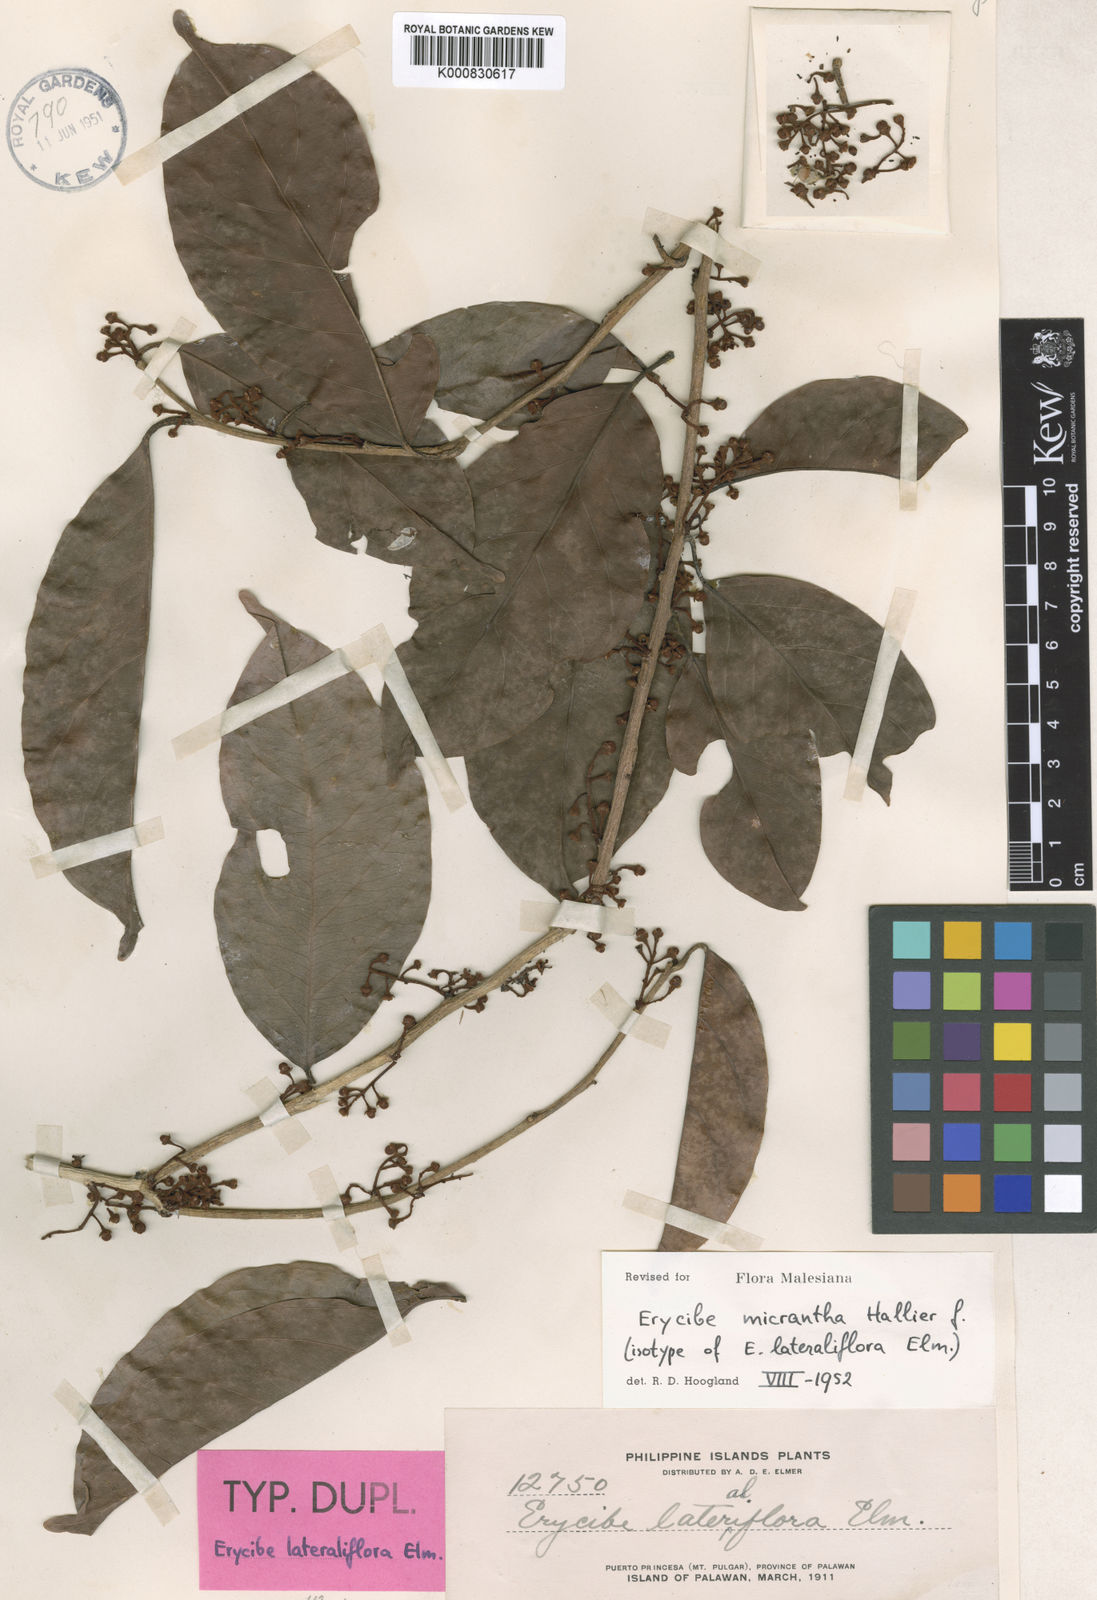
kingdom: Plantae
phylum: Tracheophyta
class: Magnoliopsida
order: Solanales
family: Convolvulaceae
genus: Erycibe
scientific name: Erycibe micrantha
